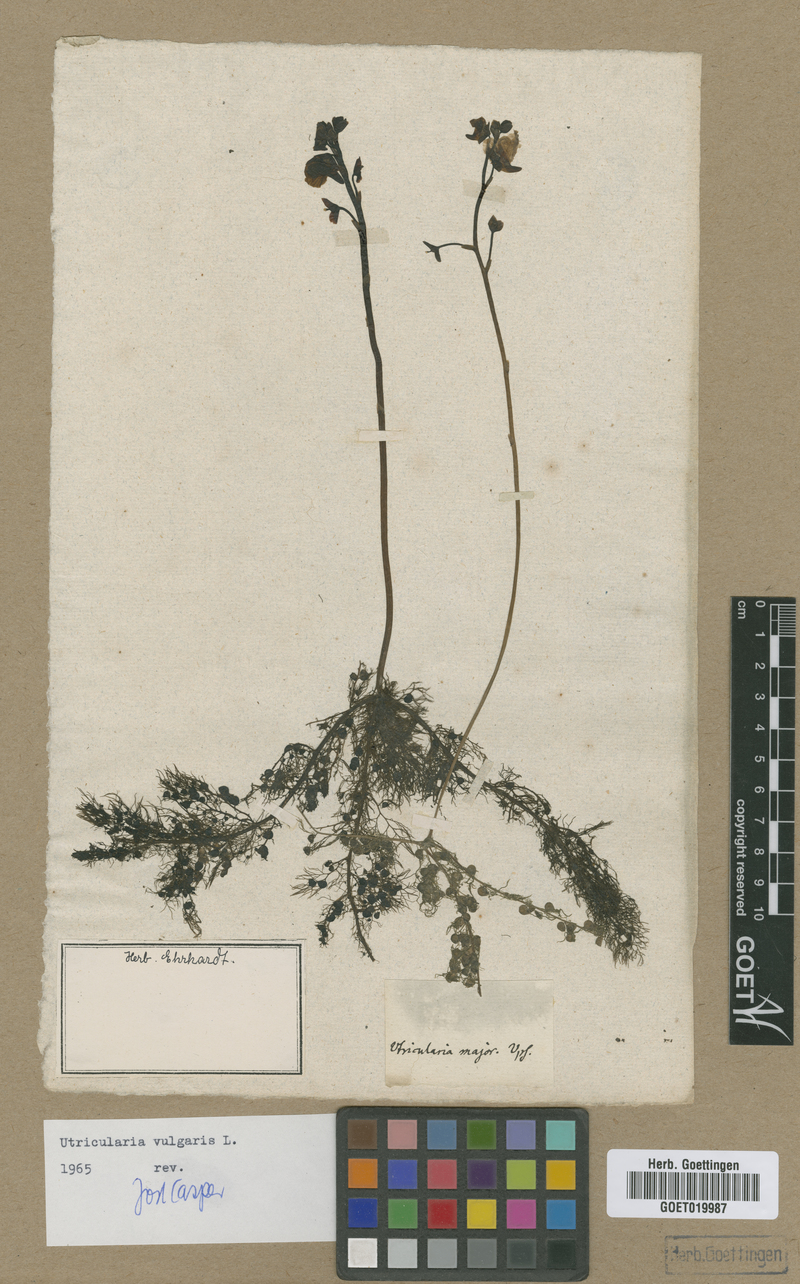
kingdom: Plantae
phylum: Tracheophyta
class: Magnoliopsida
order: Lamiales
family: Lentibulariaceae
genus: Utricularia
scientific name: Utricularia vulgaris
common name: Greater bladderwort
